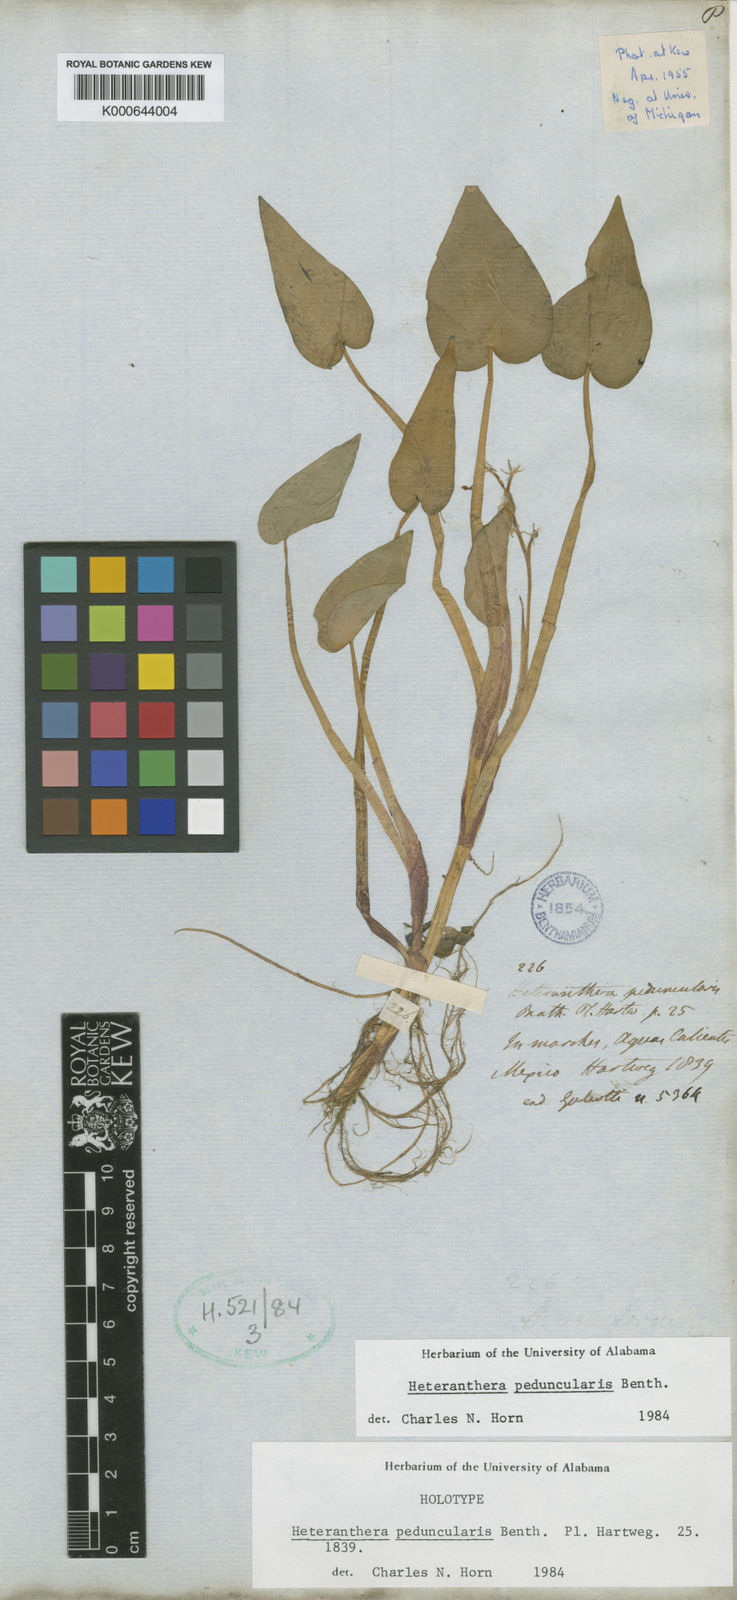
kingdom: Plantae
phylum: Tracheophyta
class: Liliopsida
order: Commelinales
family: Pontederiaceae
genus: Heteranthera
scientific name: Heteranthera peduncularis
